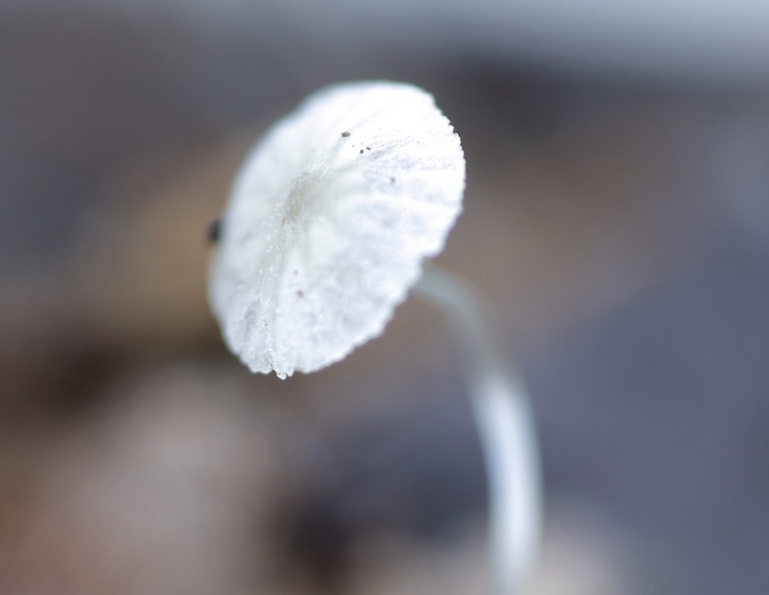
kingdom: Fungi
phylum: Basidiomycota
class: Agaricomycetes
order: Agaricales
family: Mycenaceae
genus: Mycena
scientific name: Mycena
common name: huesvamp
